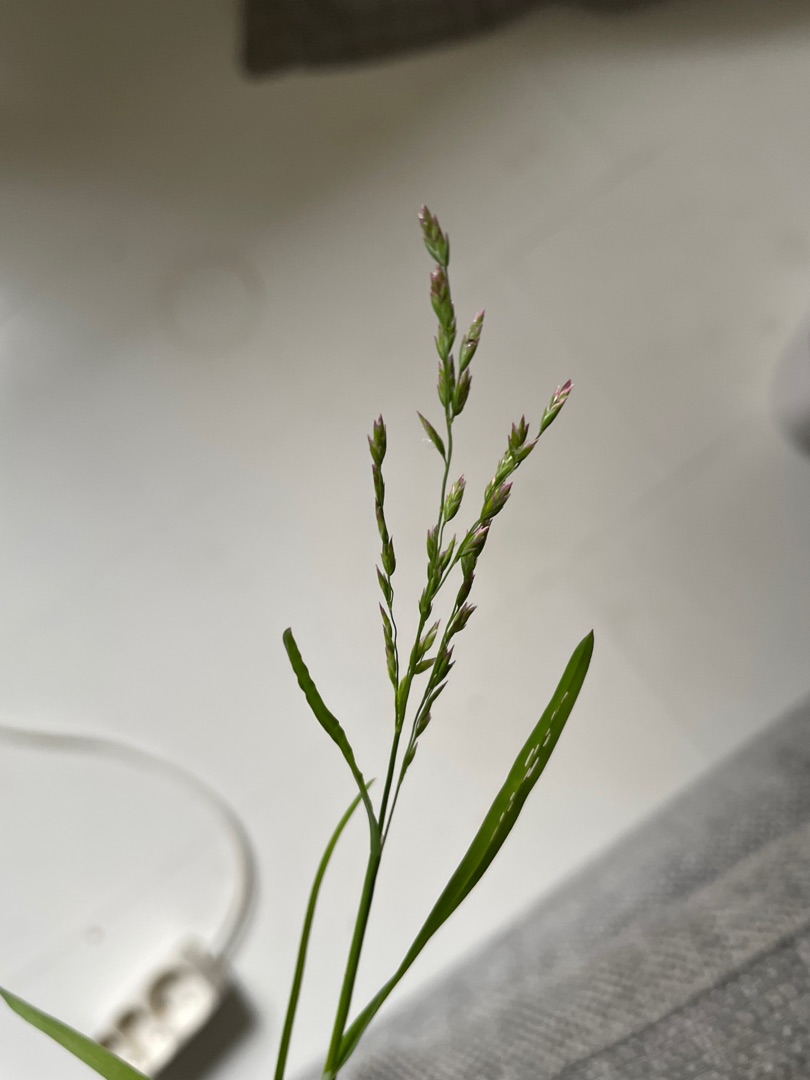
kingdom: Plantae
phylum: Tracheophyta
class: Liliopsida
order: Poales
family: Poaceae
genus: Poa
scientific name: Poa pratensis
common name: Eng-rapgræs
